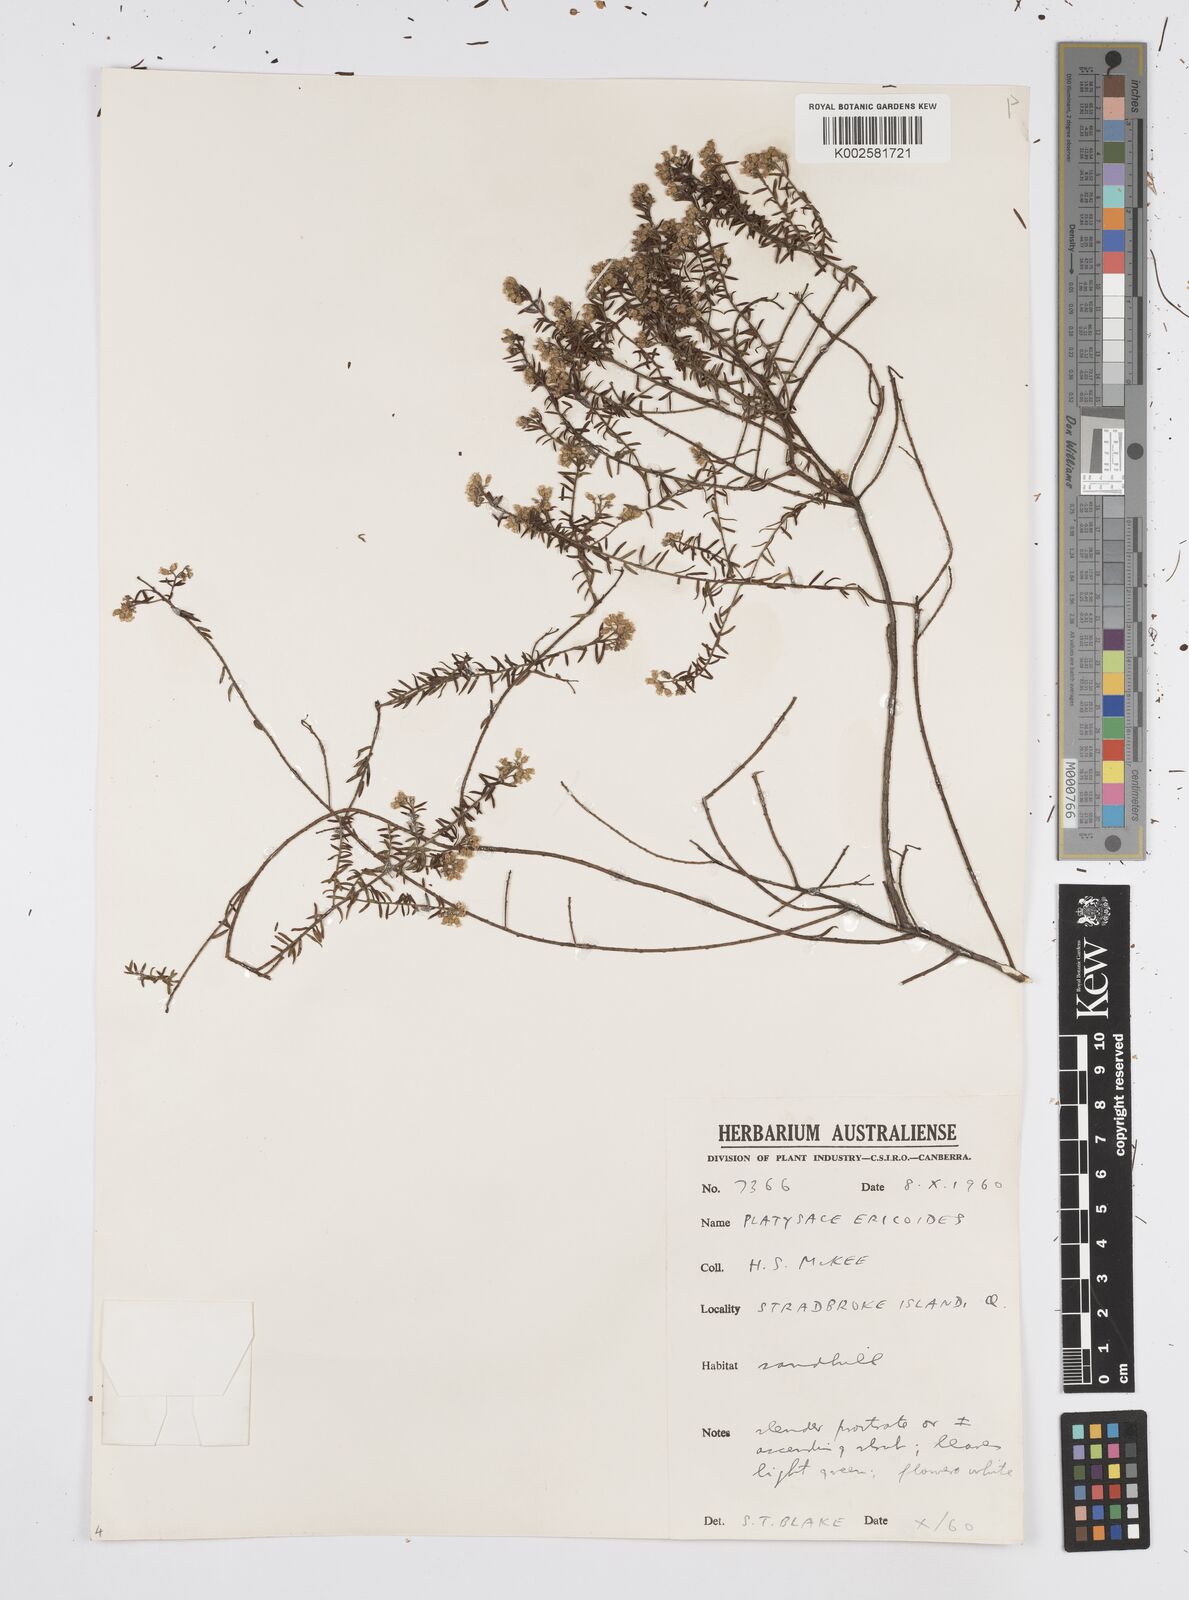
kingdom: Plantae
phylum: Tracheophyta
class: Magnoliopsida
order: Apiales
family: Apiaceae
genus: Platysace
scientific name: Platysace ericoides
